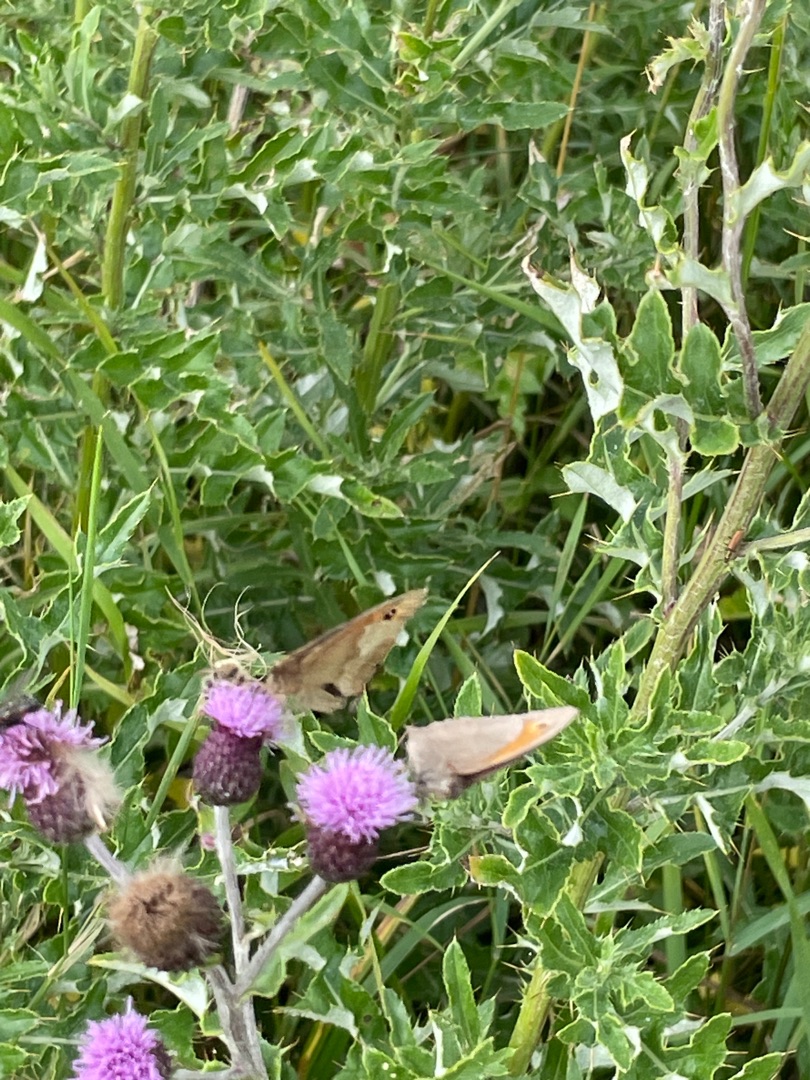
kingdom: Animalia
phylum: Arthropoda
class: Insecta
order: Lepidoptera
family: Nymphalidae
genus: Maniola
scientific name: Maniola jurtina
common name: Græsrandøje
